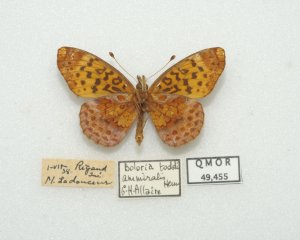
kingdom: Animalia
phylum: Arthropoda
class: Insecta
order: Lepidoptera
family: Nymphalidae
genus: Clossiana
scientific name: Clossiana toddi
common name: Meadow Fritillary
